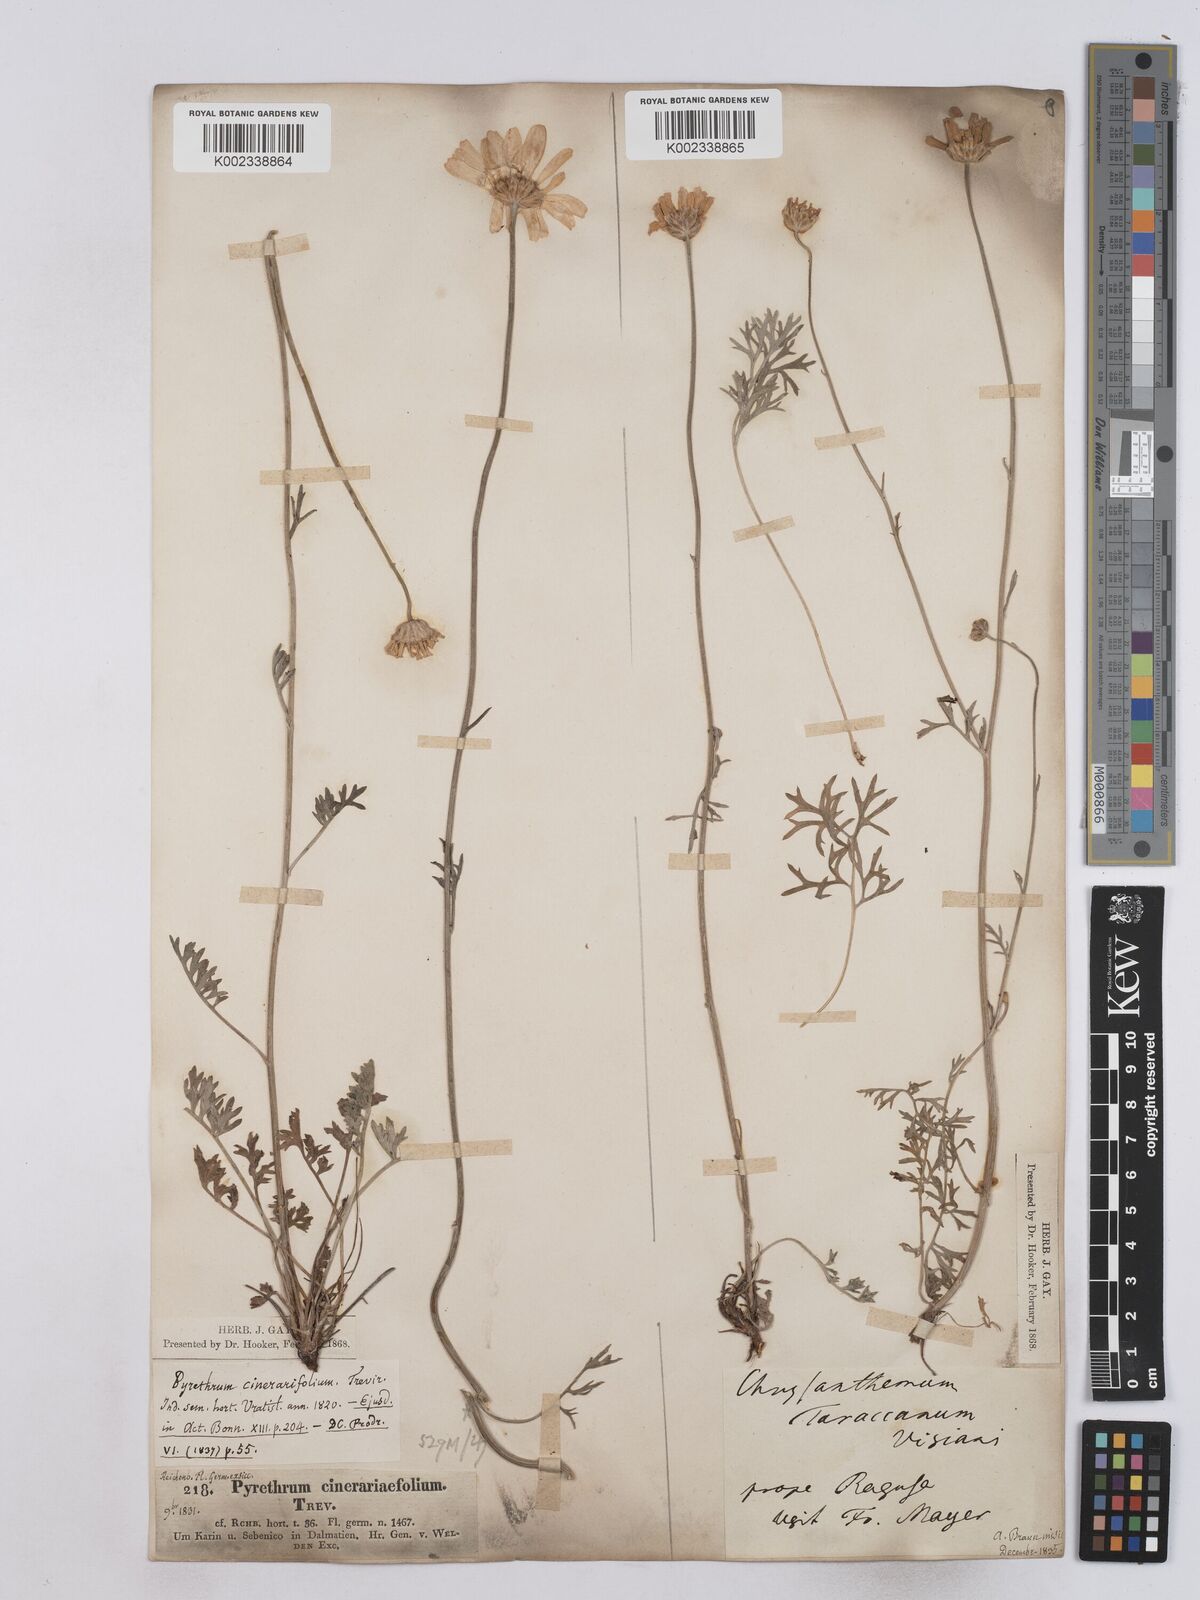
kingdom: Plantae
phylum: Tracheophyta
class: Magnoliopsida
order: Asterales
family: Asteraceae
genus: Tanacetum
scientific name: Tanacetum cinerariifolium
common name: Dalmatian pyrethrum
